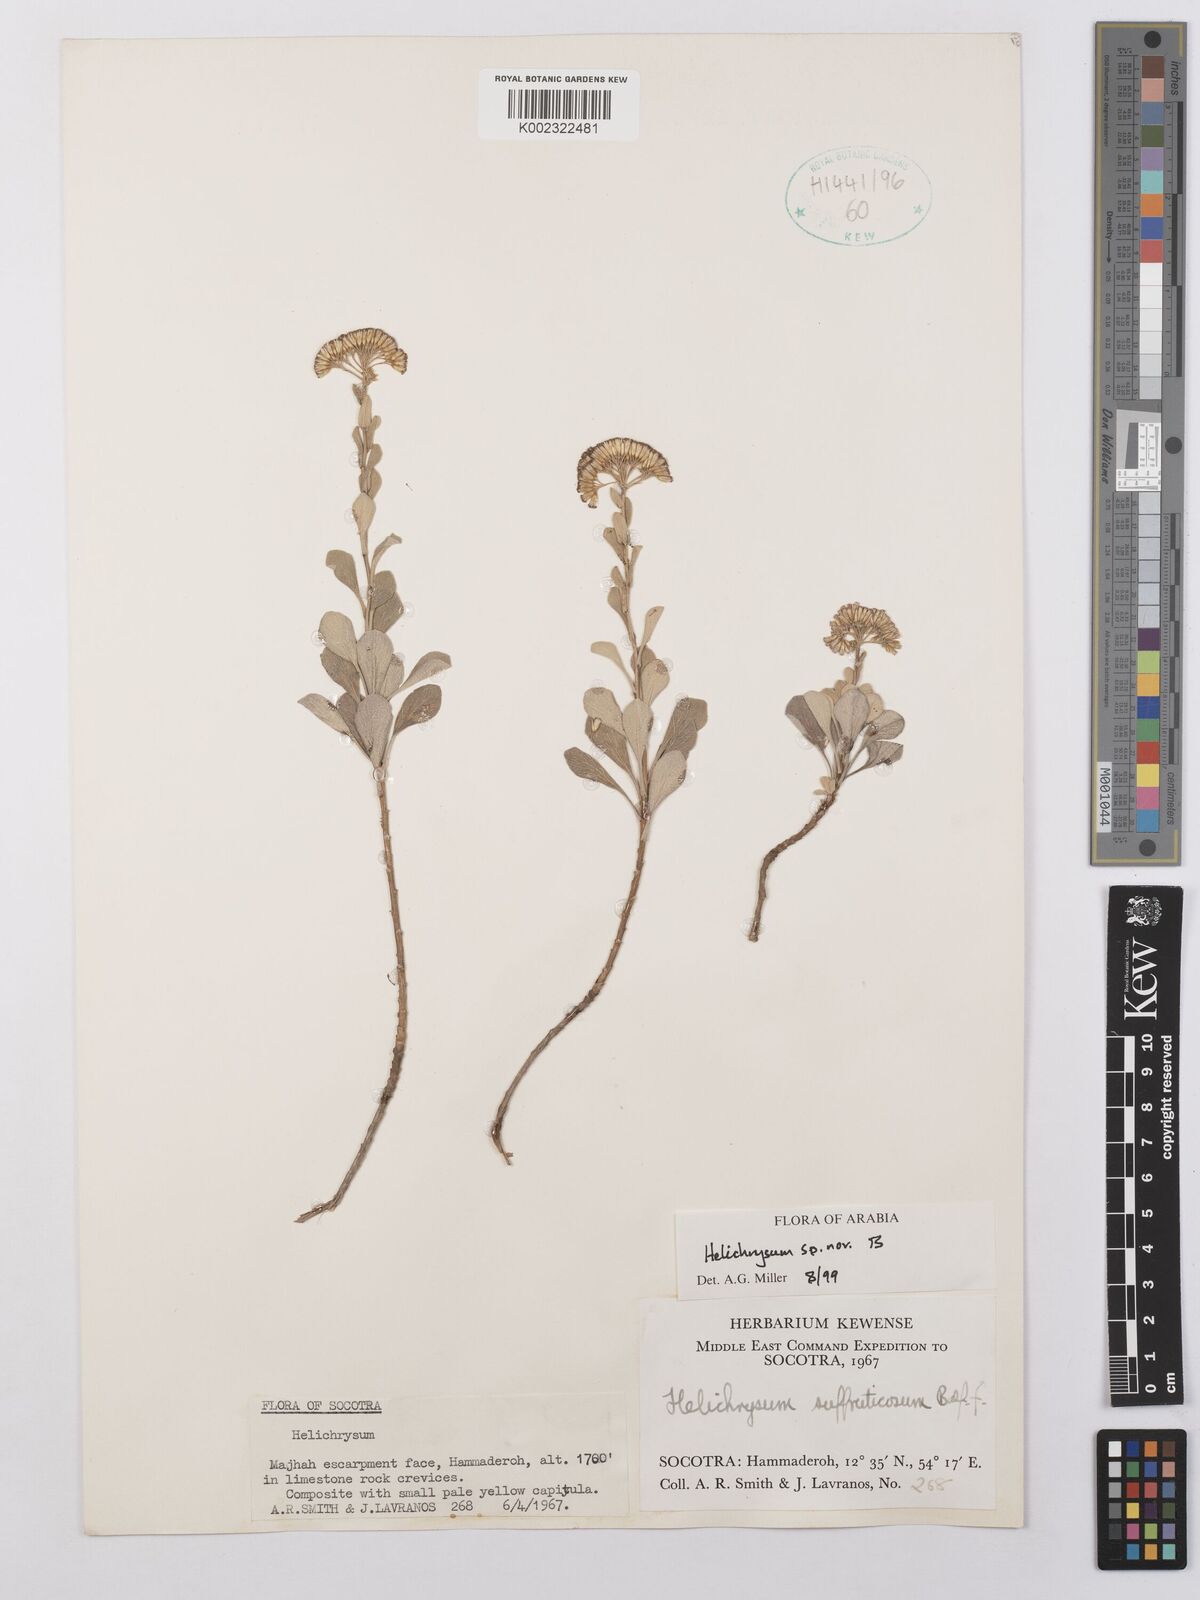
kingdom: Plantae
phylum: Tracheophyta
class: Magnoliopsida
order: Asterales
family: Asteraceae
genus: Helichrysum
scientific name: Helichrysum
